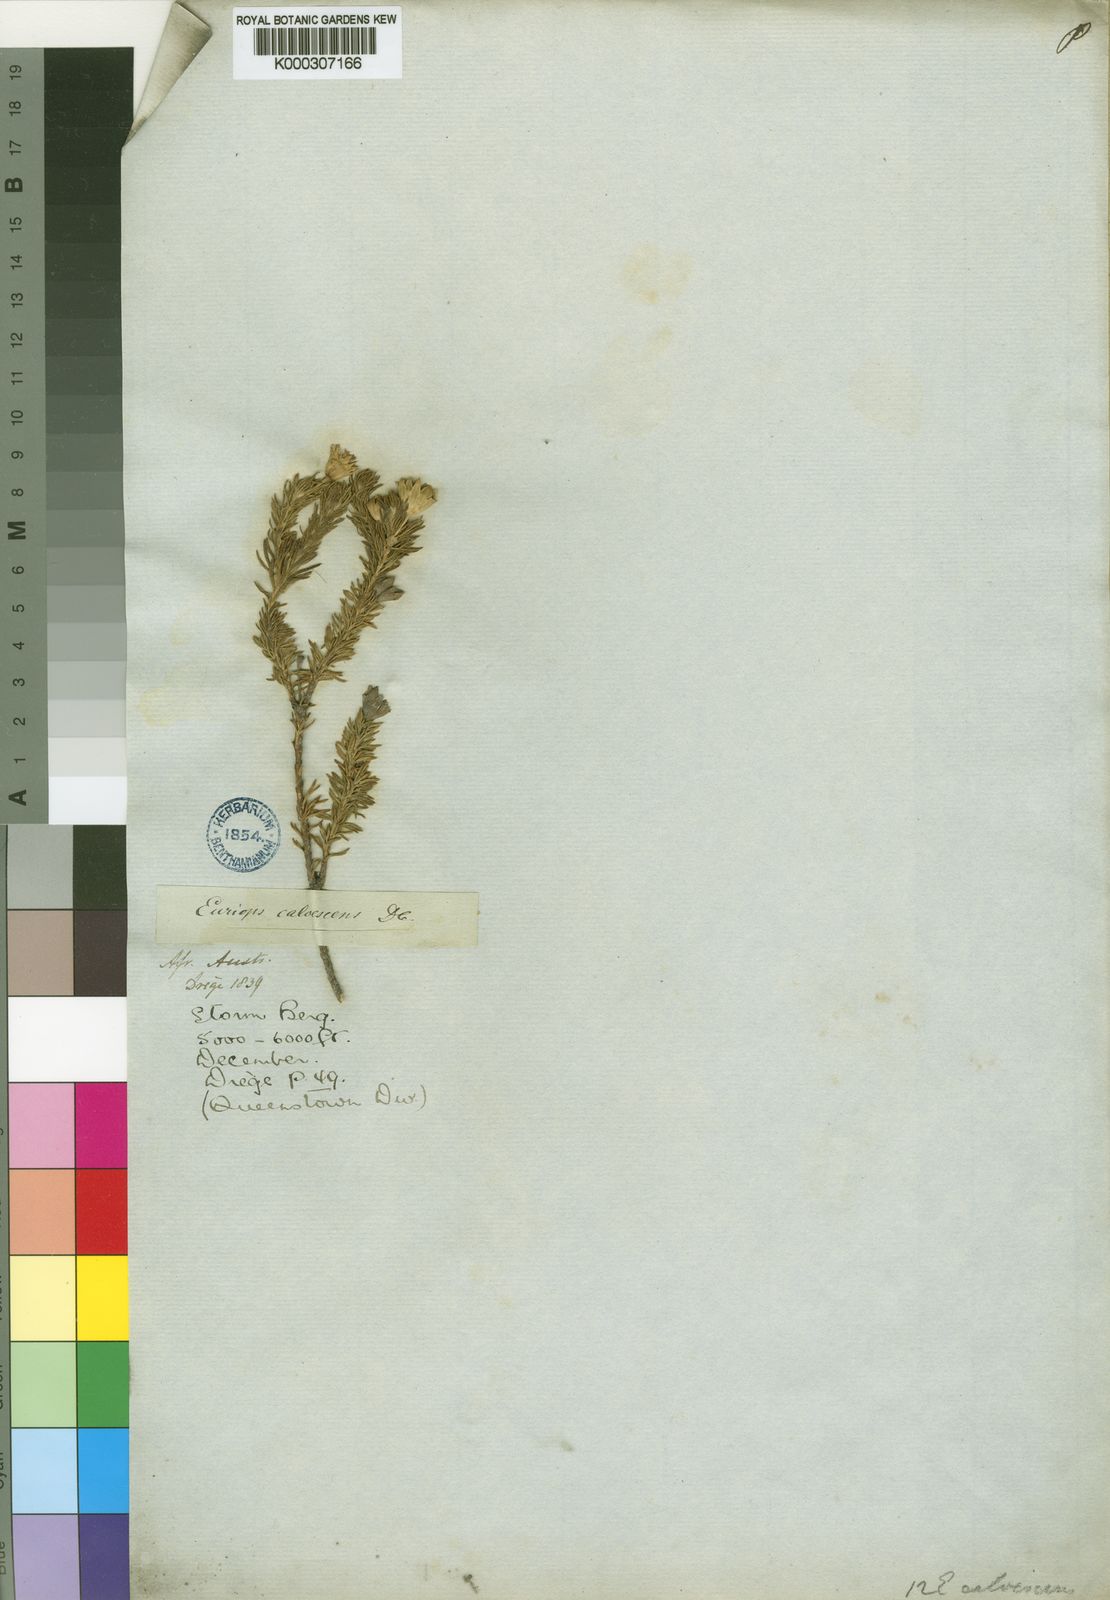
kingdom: Plantae
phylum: Tracheophyta
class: Magnoliopsida
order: Asterales
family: Asteraceae
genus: Euryops
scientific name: Euryops calvescens
